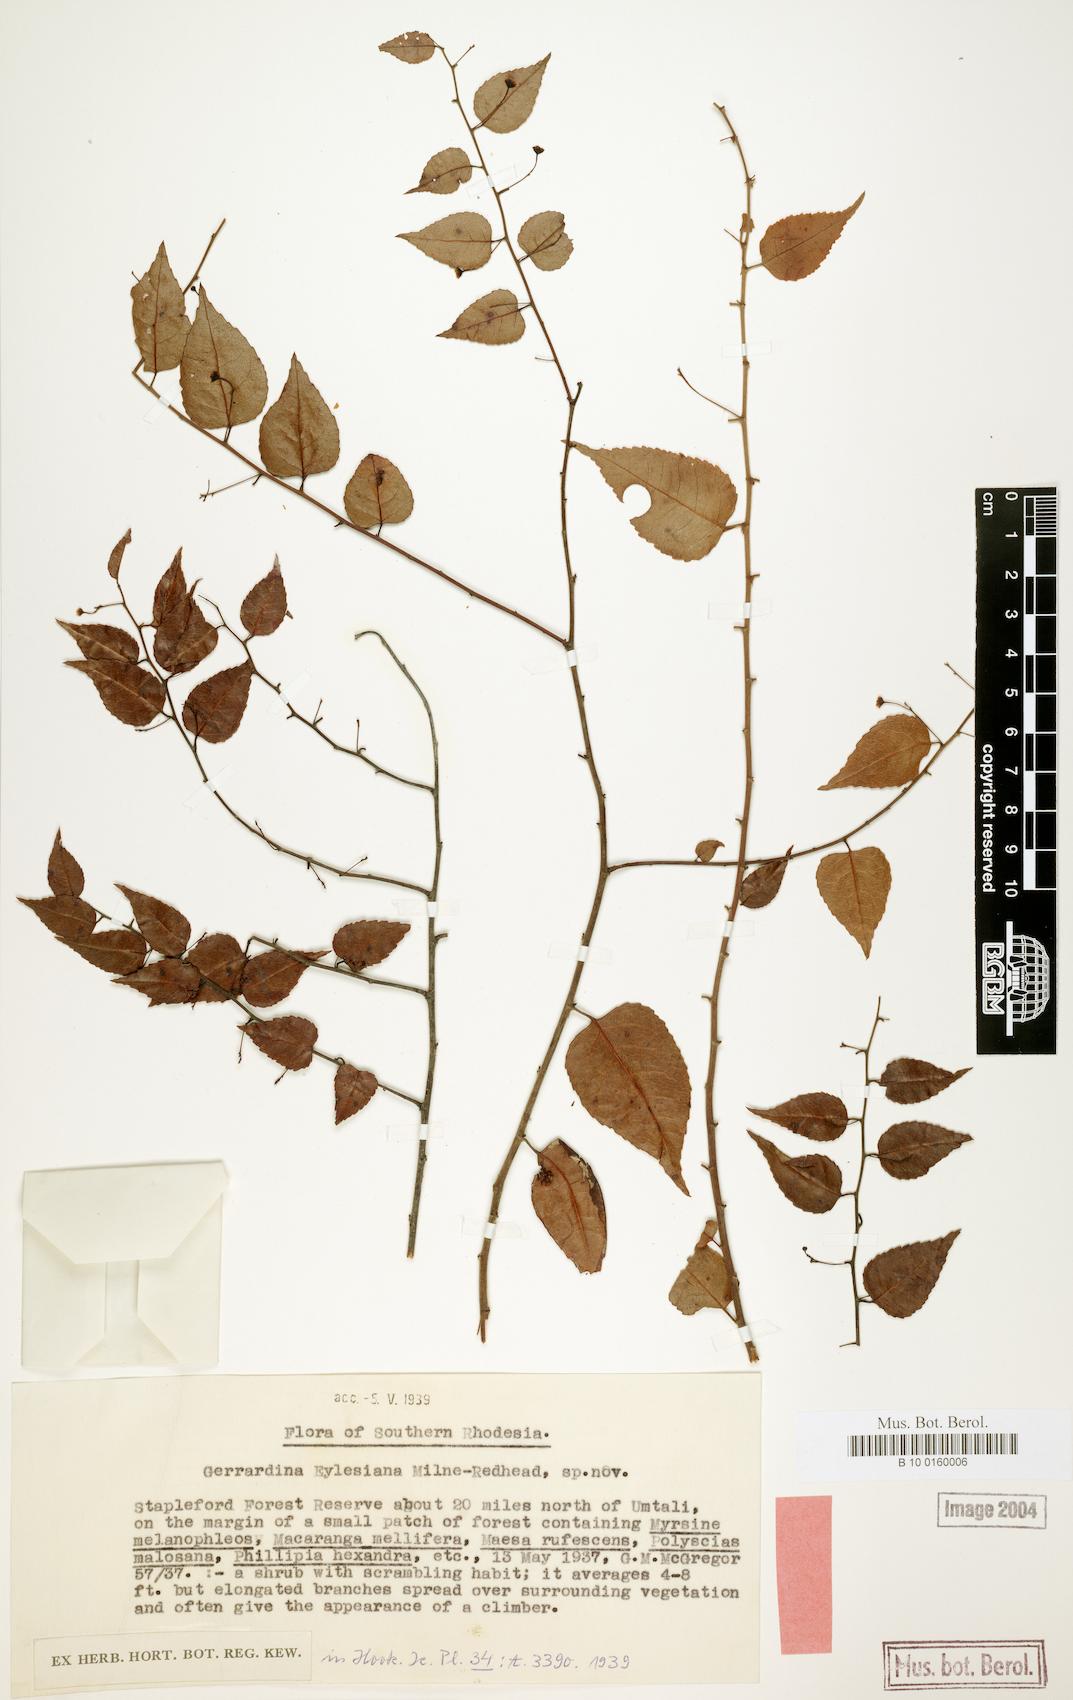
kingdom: Plantae
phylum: Tracheophyta
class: Magnoliopsida
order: Huerteales
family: Gerrardinaceae
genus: Gerrardina
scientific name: Gerrardina eylesiana
